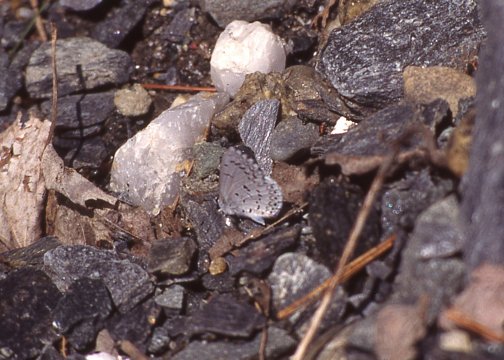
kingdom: Animalia
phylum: Arthropoda
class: Insecta
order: Lepidoptera
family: Lycaenidae
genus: Celastrina
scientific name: Celastrina lucia
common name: Northern Spring Azure
